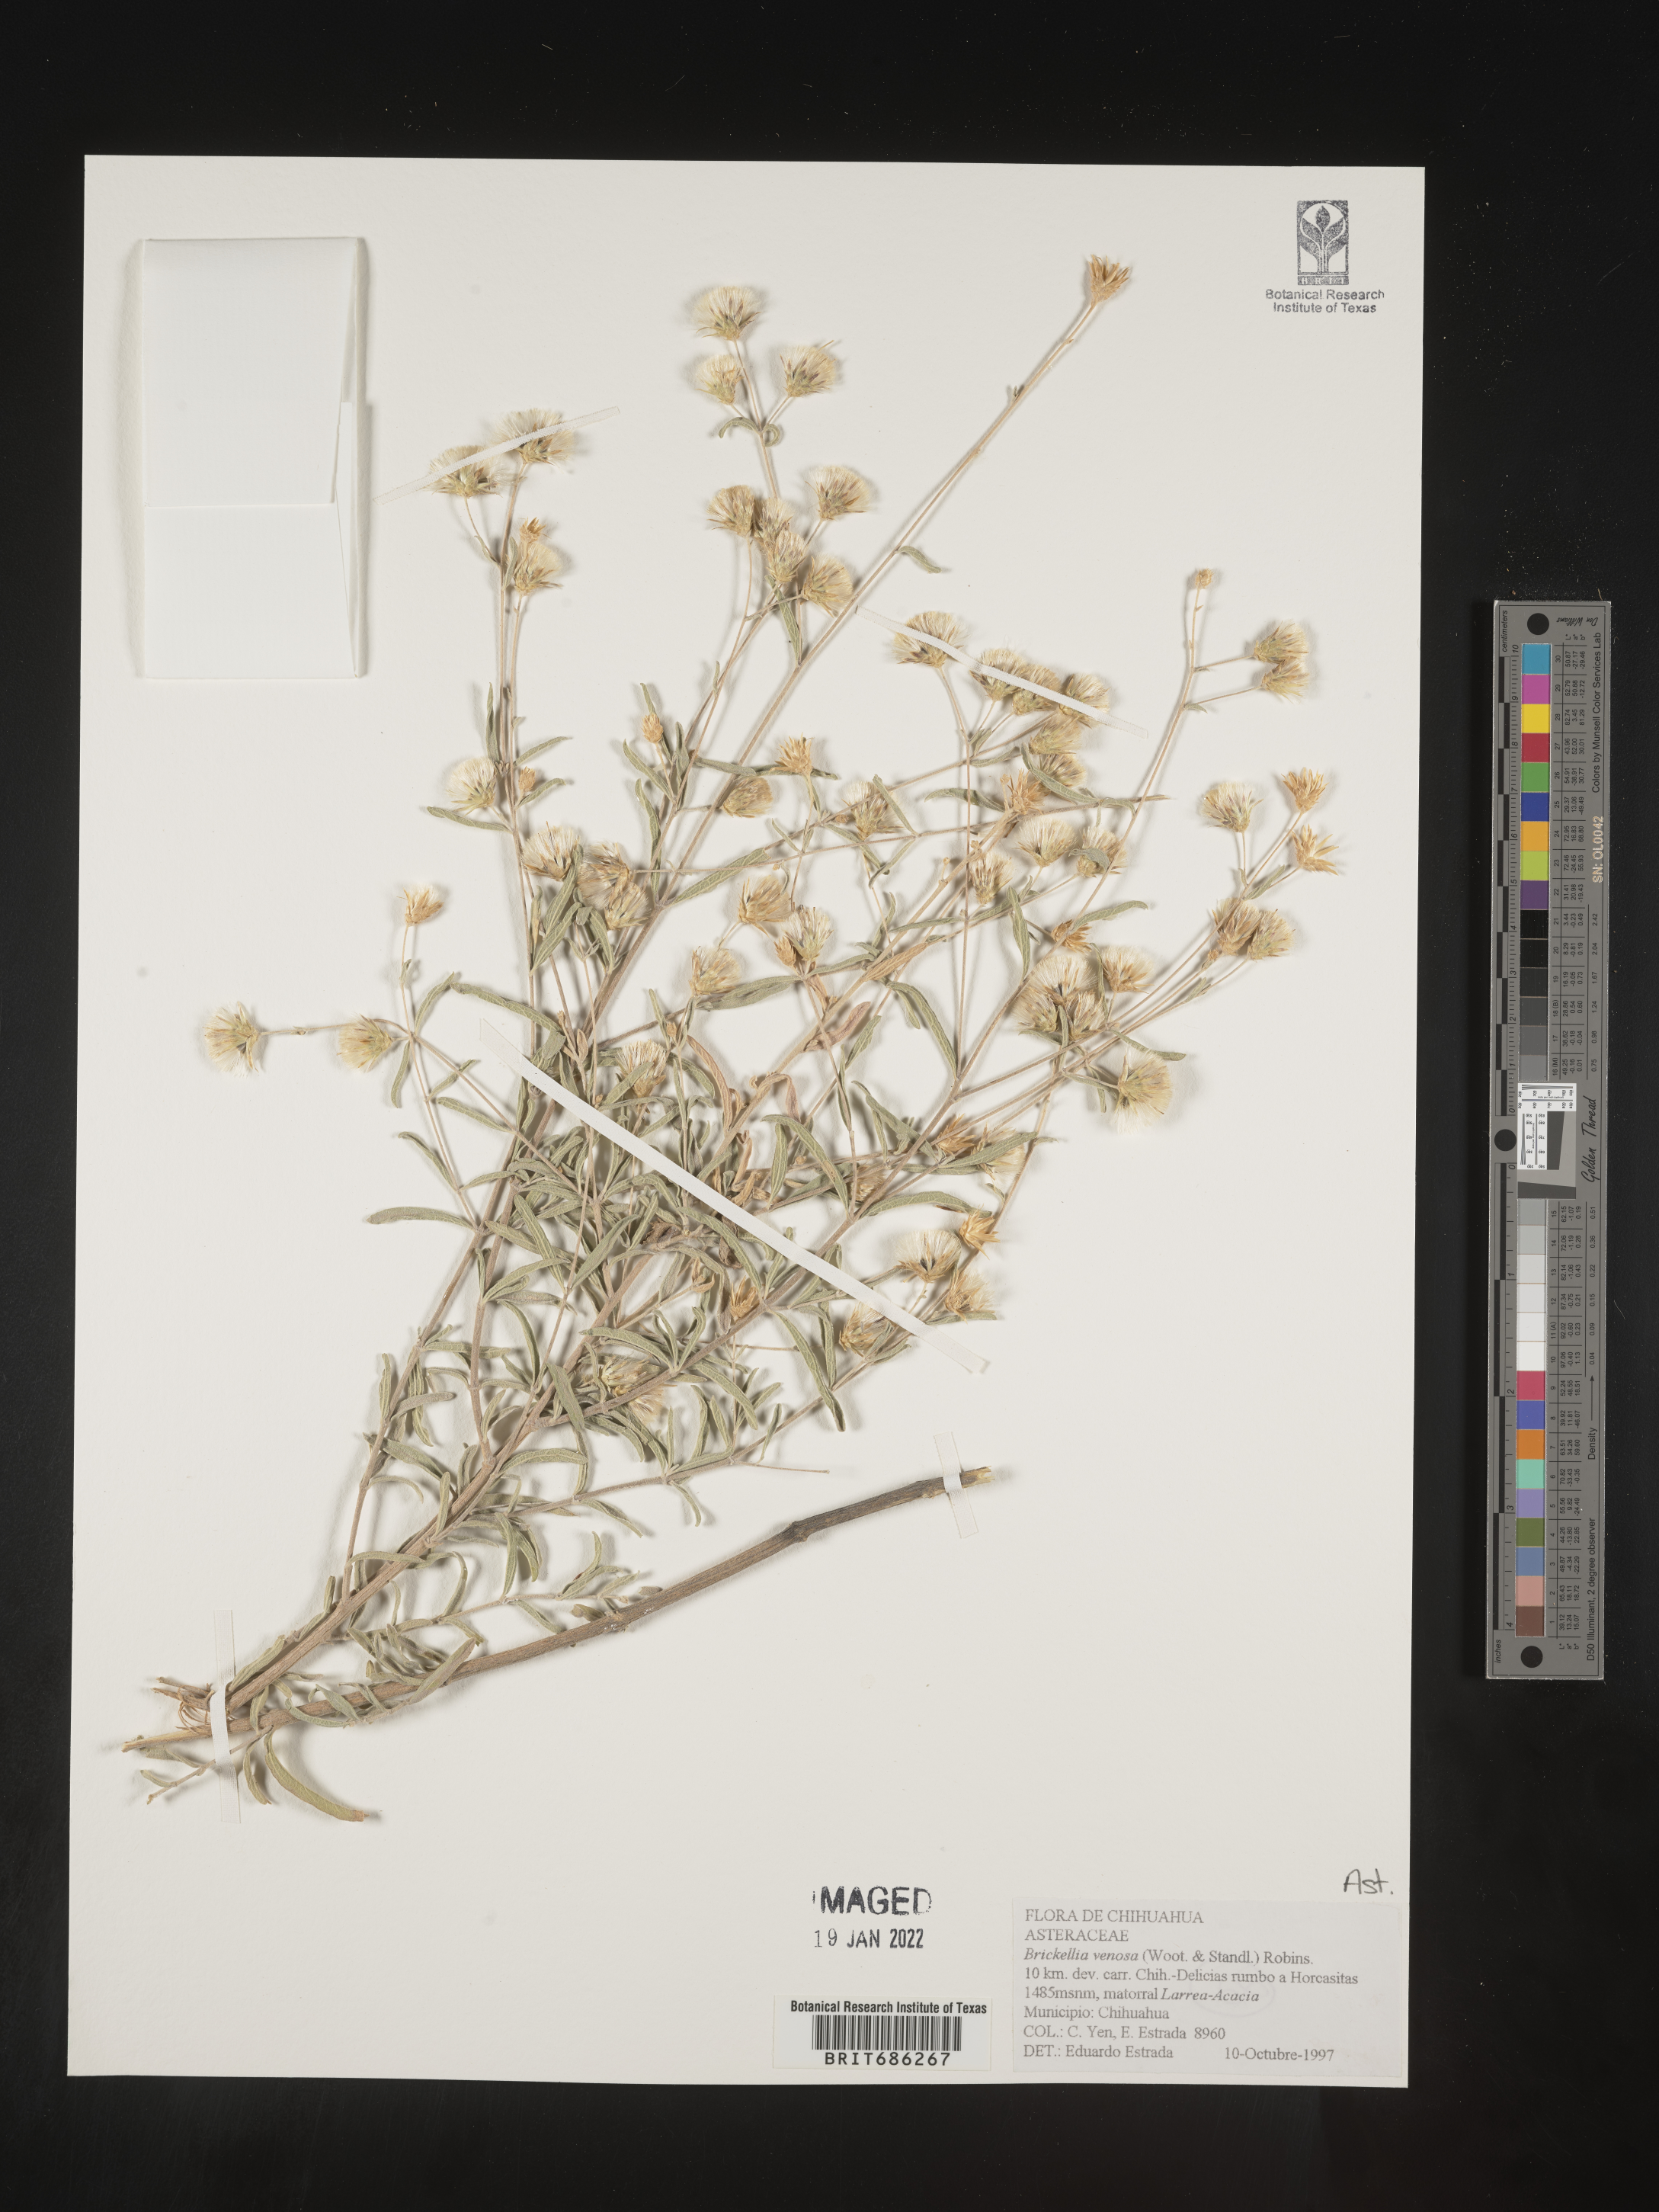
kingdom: Plantae
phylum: Tracheophyta
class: Magnoliopsida
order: Asterales
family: Asteraceae
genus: Brickellia
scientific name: Brickellia venosa
